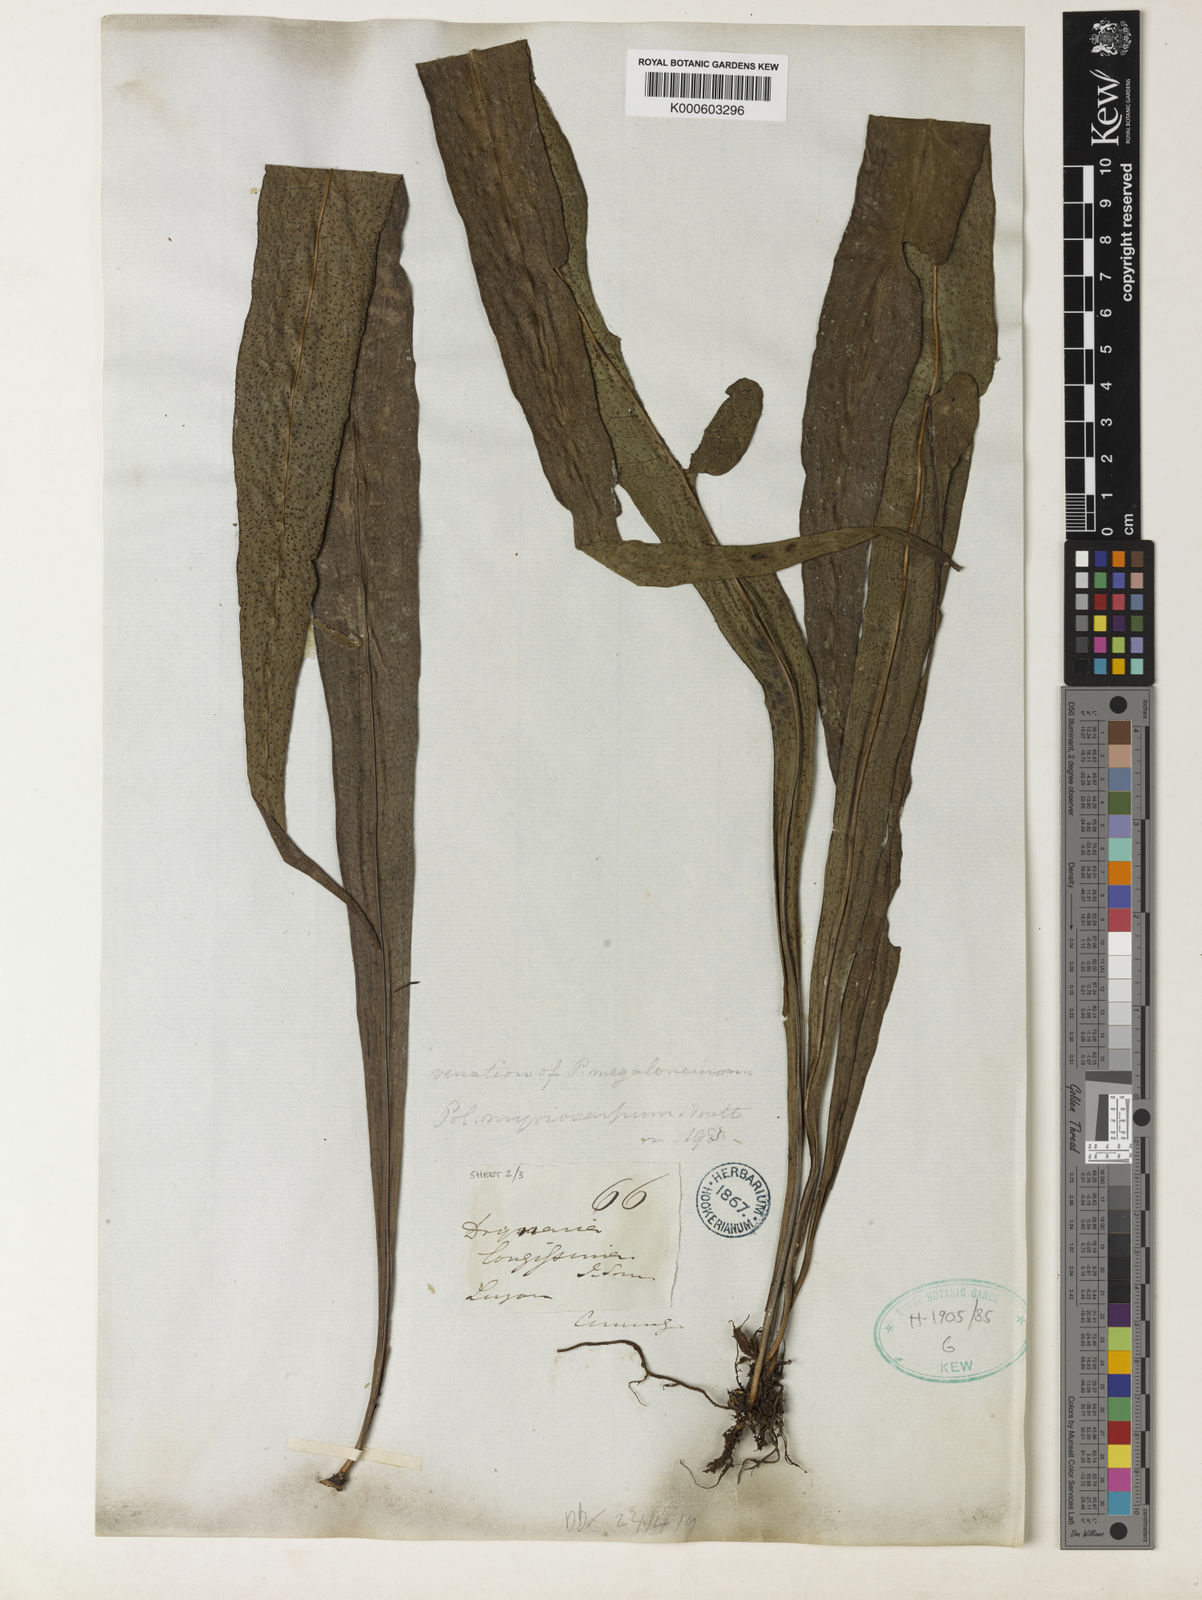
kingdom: Plantae
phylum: Tracheophyta
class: Polypodiopsida
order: Polypodiales
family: Polypodiaceae
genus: Microsorum
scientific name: Microsorum
